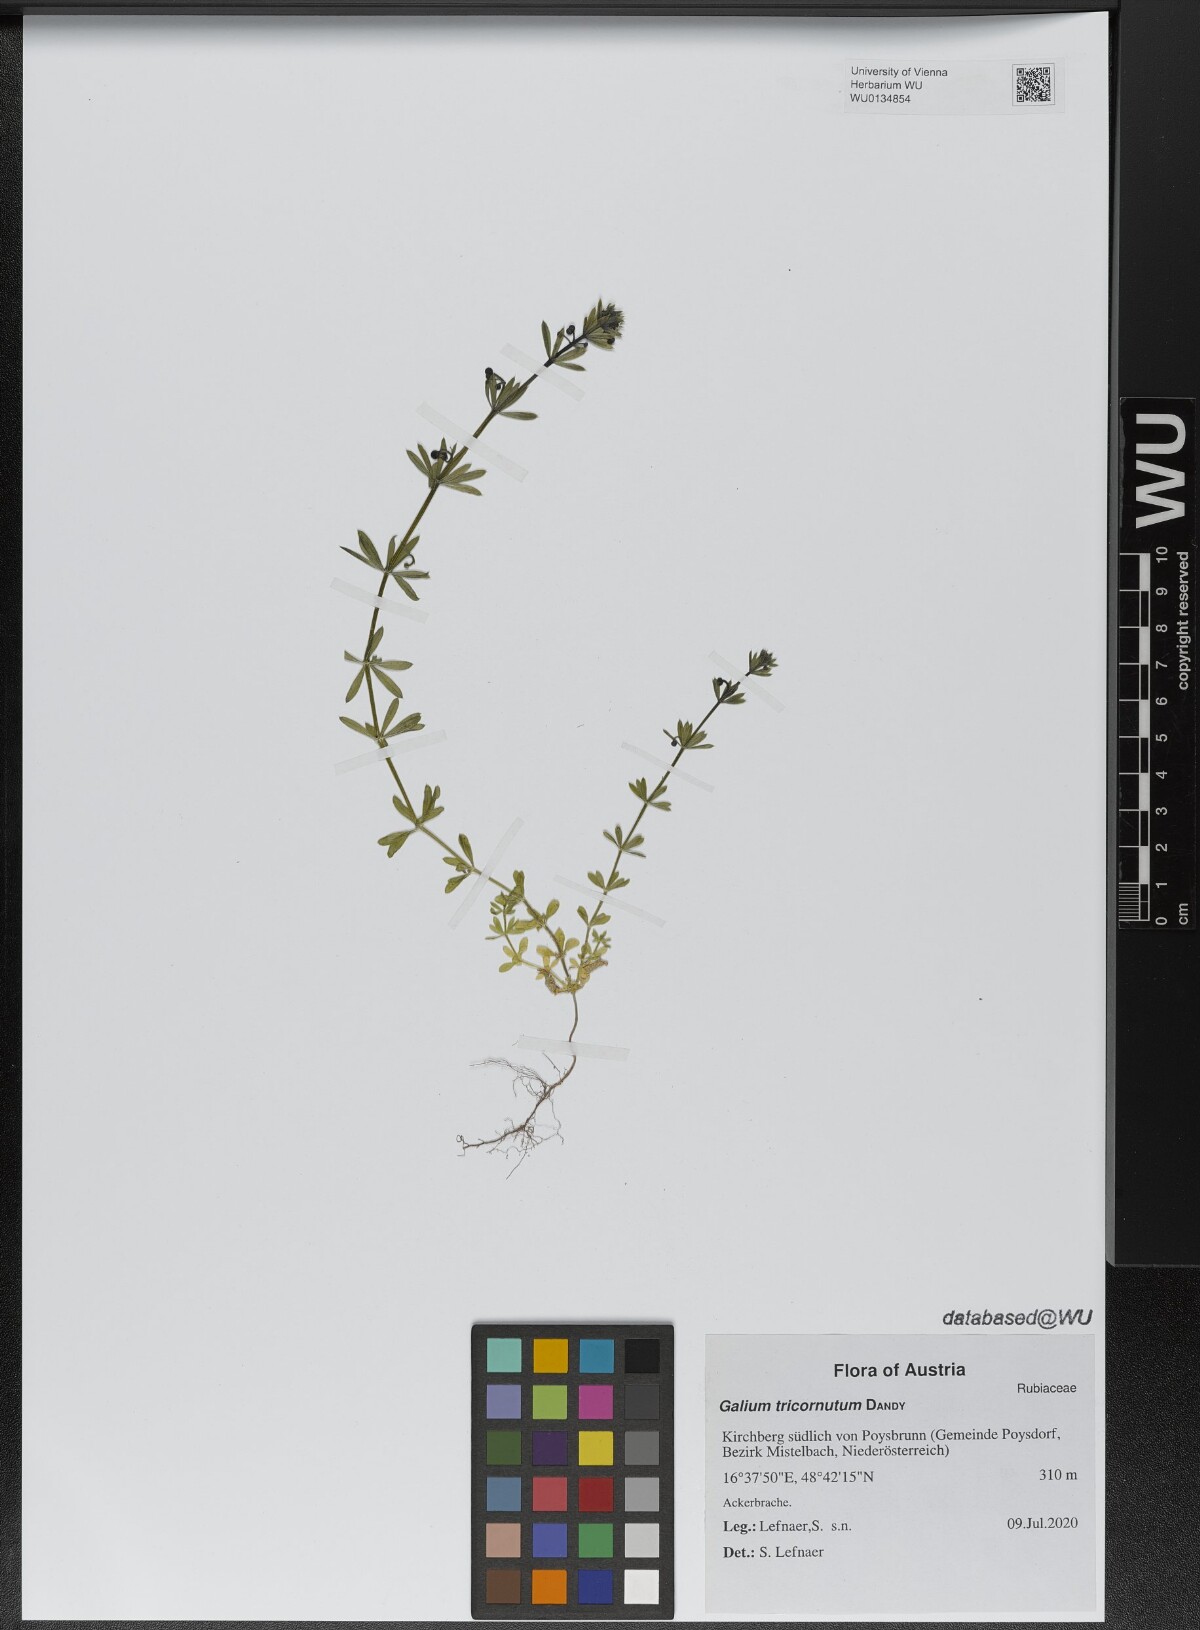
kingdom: Plantae
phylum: Tracheophyta
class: Magnoliopsida
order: Gentianales
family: Rubiaceae
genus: Galium
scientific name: Galium tricornutum
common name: Corn cleavers
